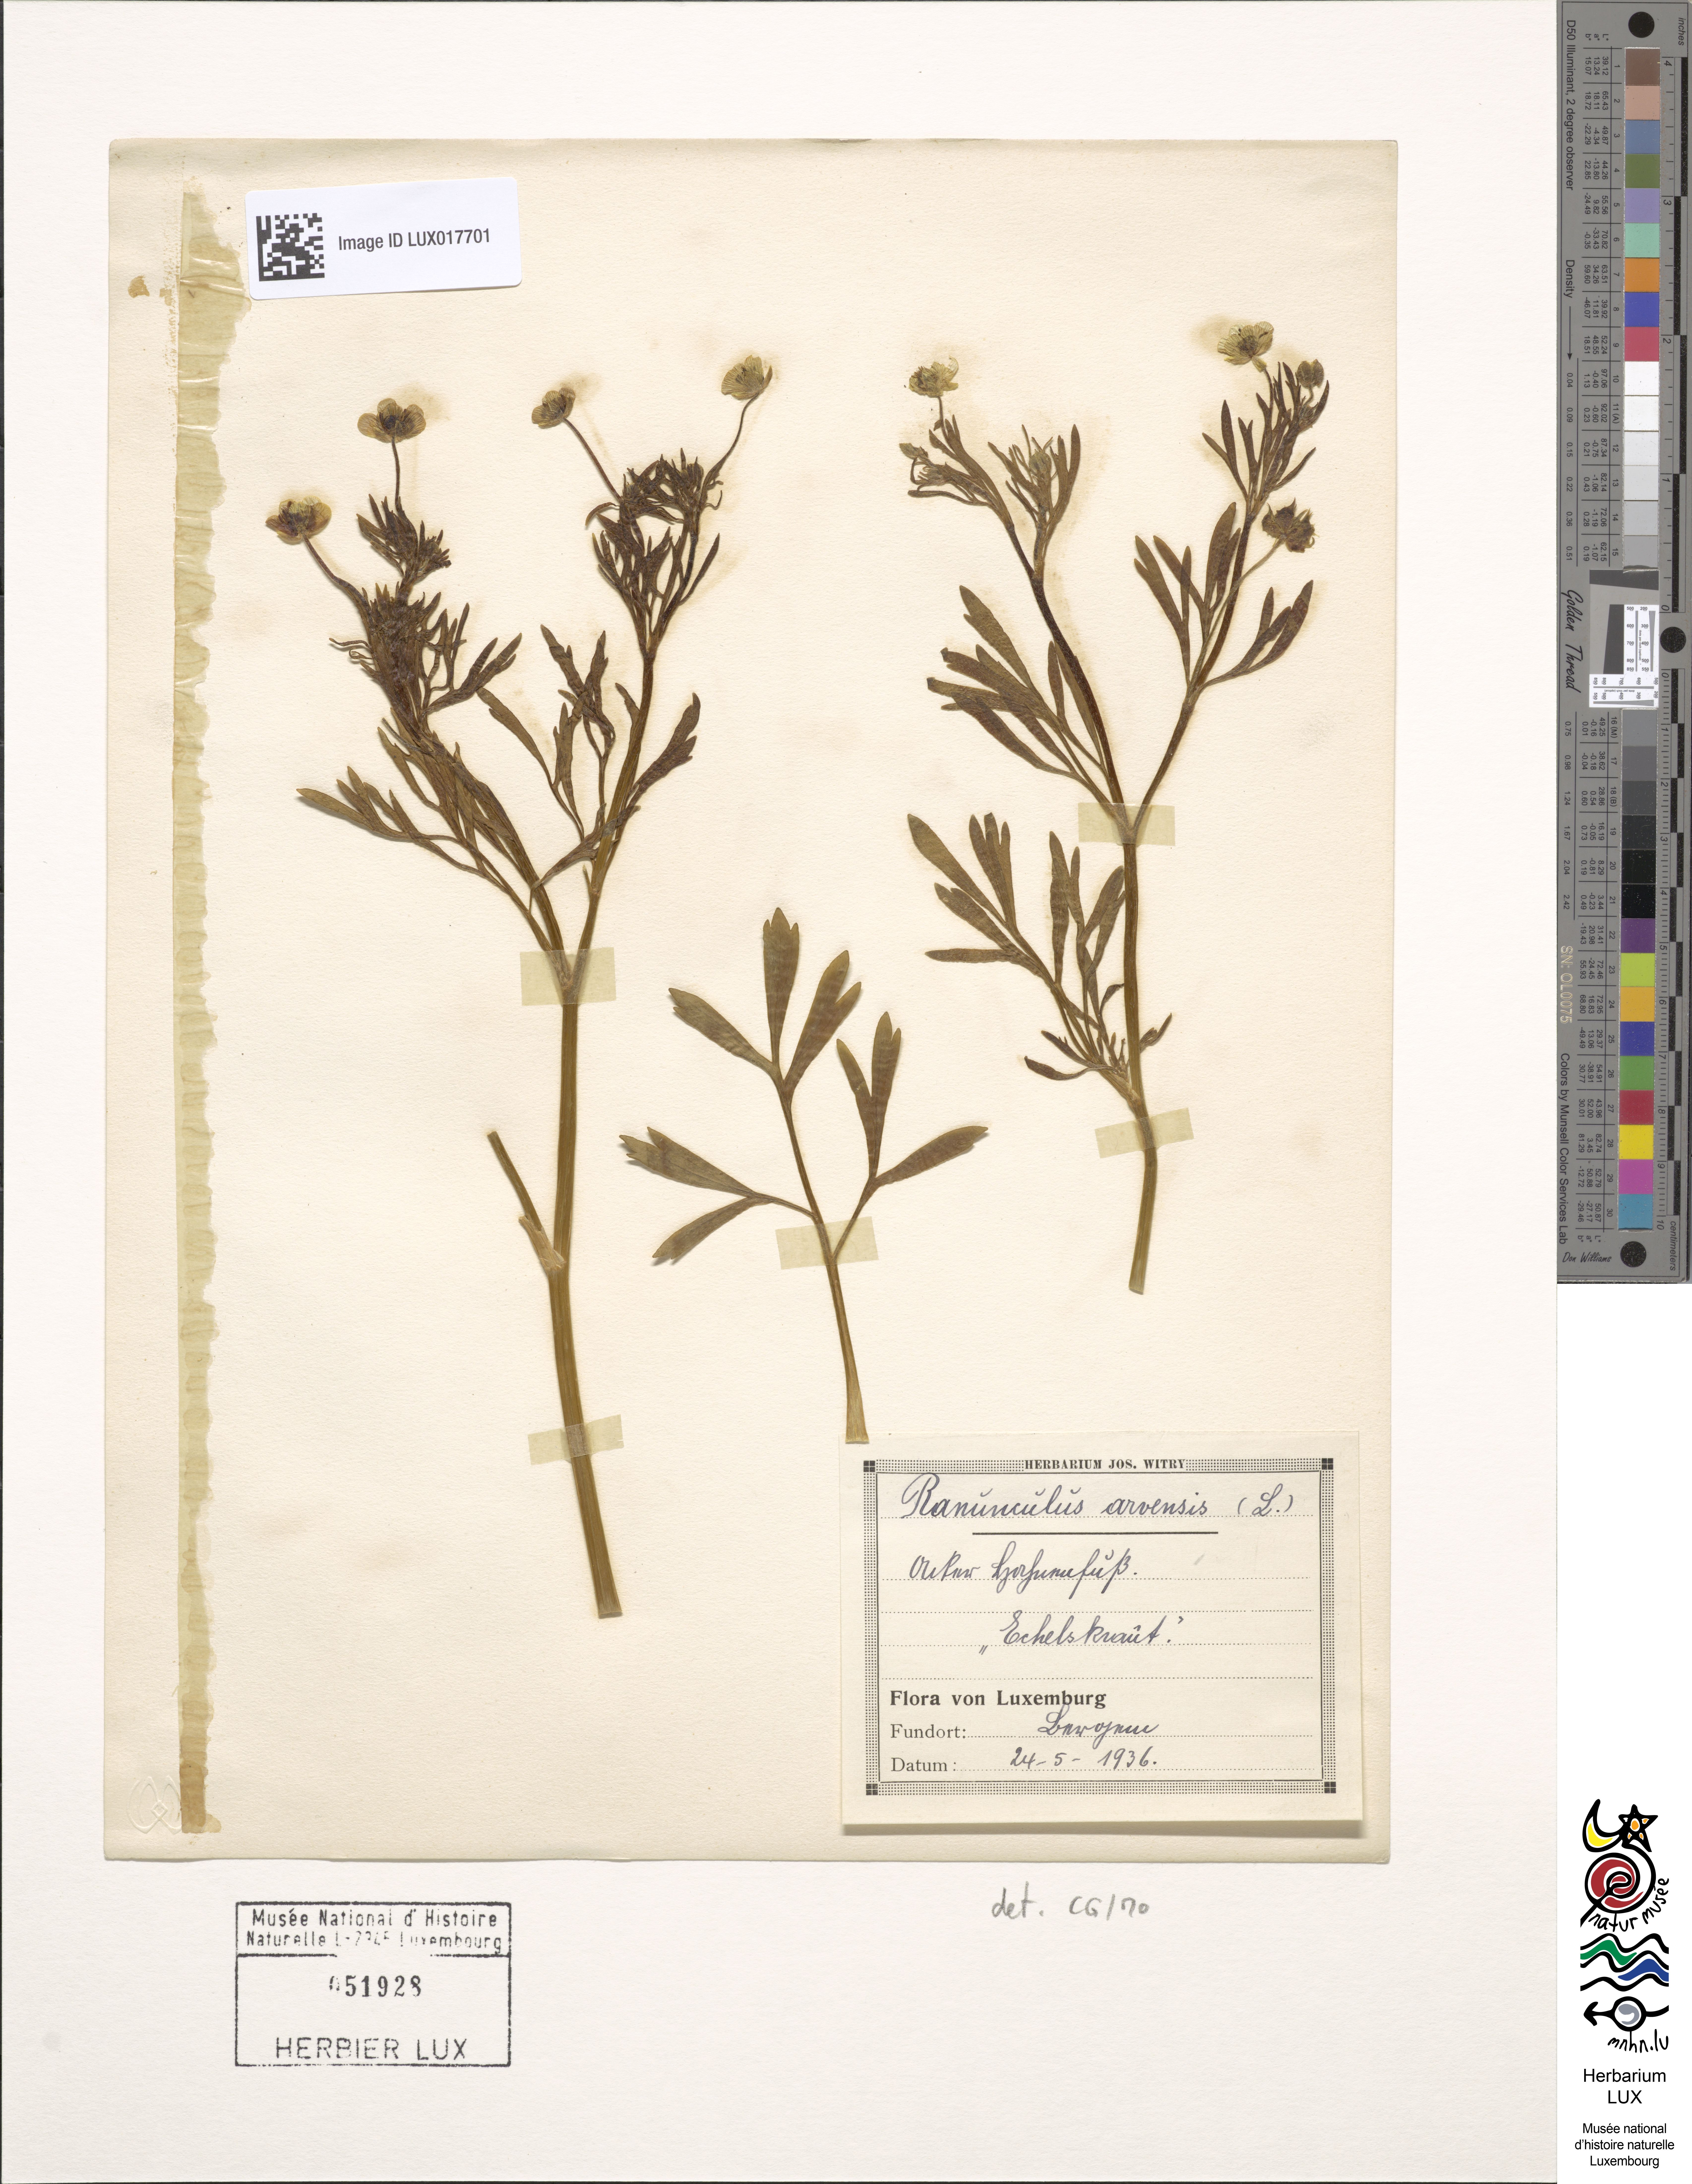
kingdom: Plantae
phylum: Tracheophyta
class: Magnoliopsida
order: Ranunculales
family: Ranunculaceae
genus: Ranunculus
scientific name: Ranunculus arvensis
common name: Corn buttercup
